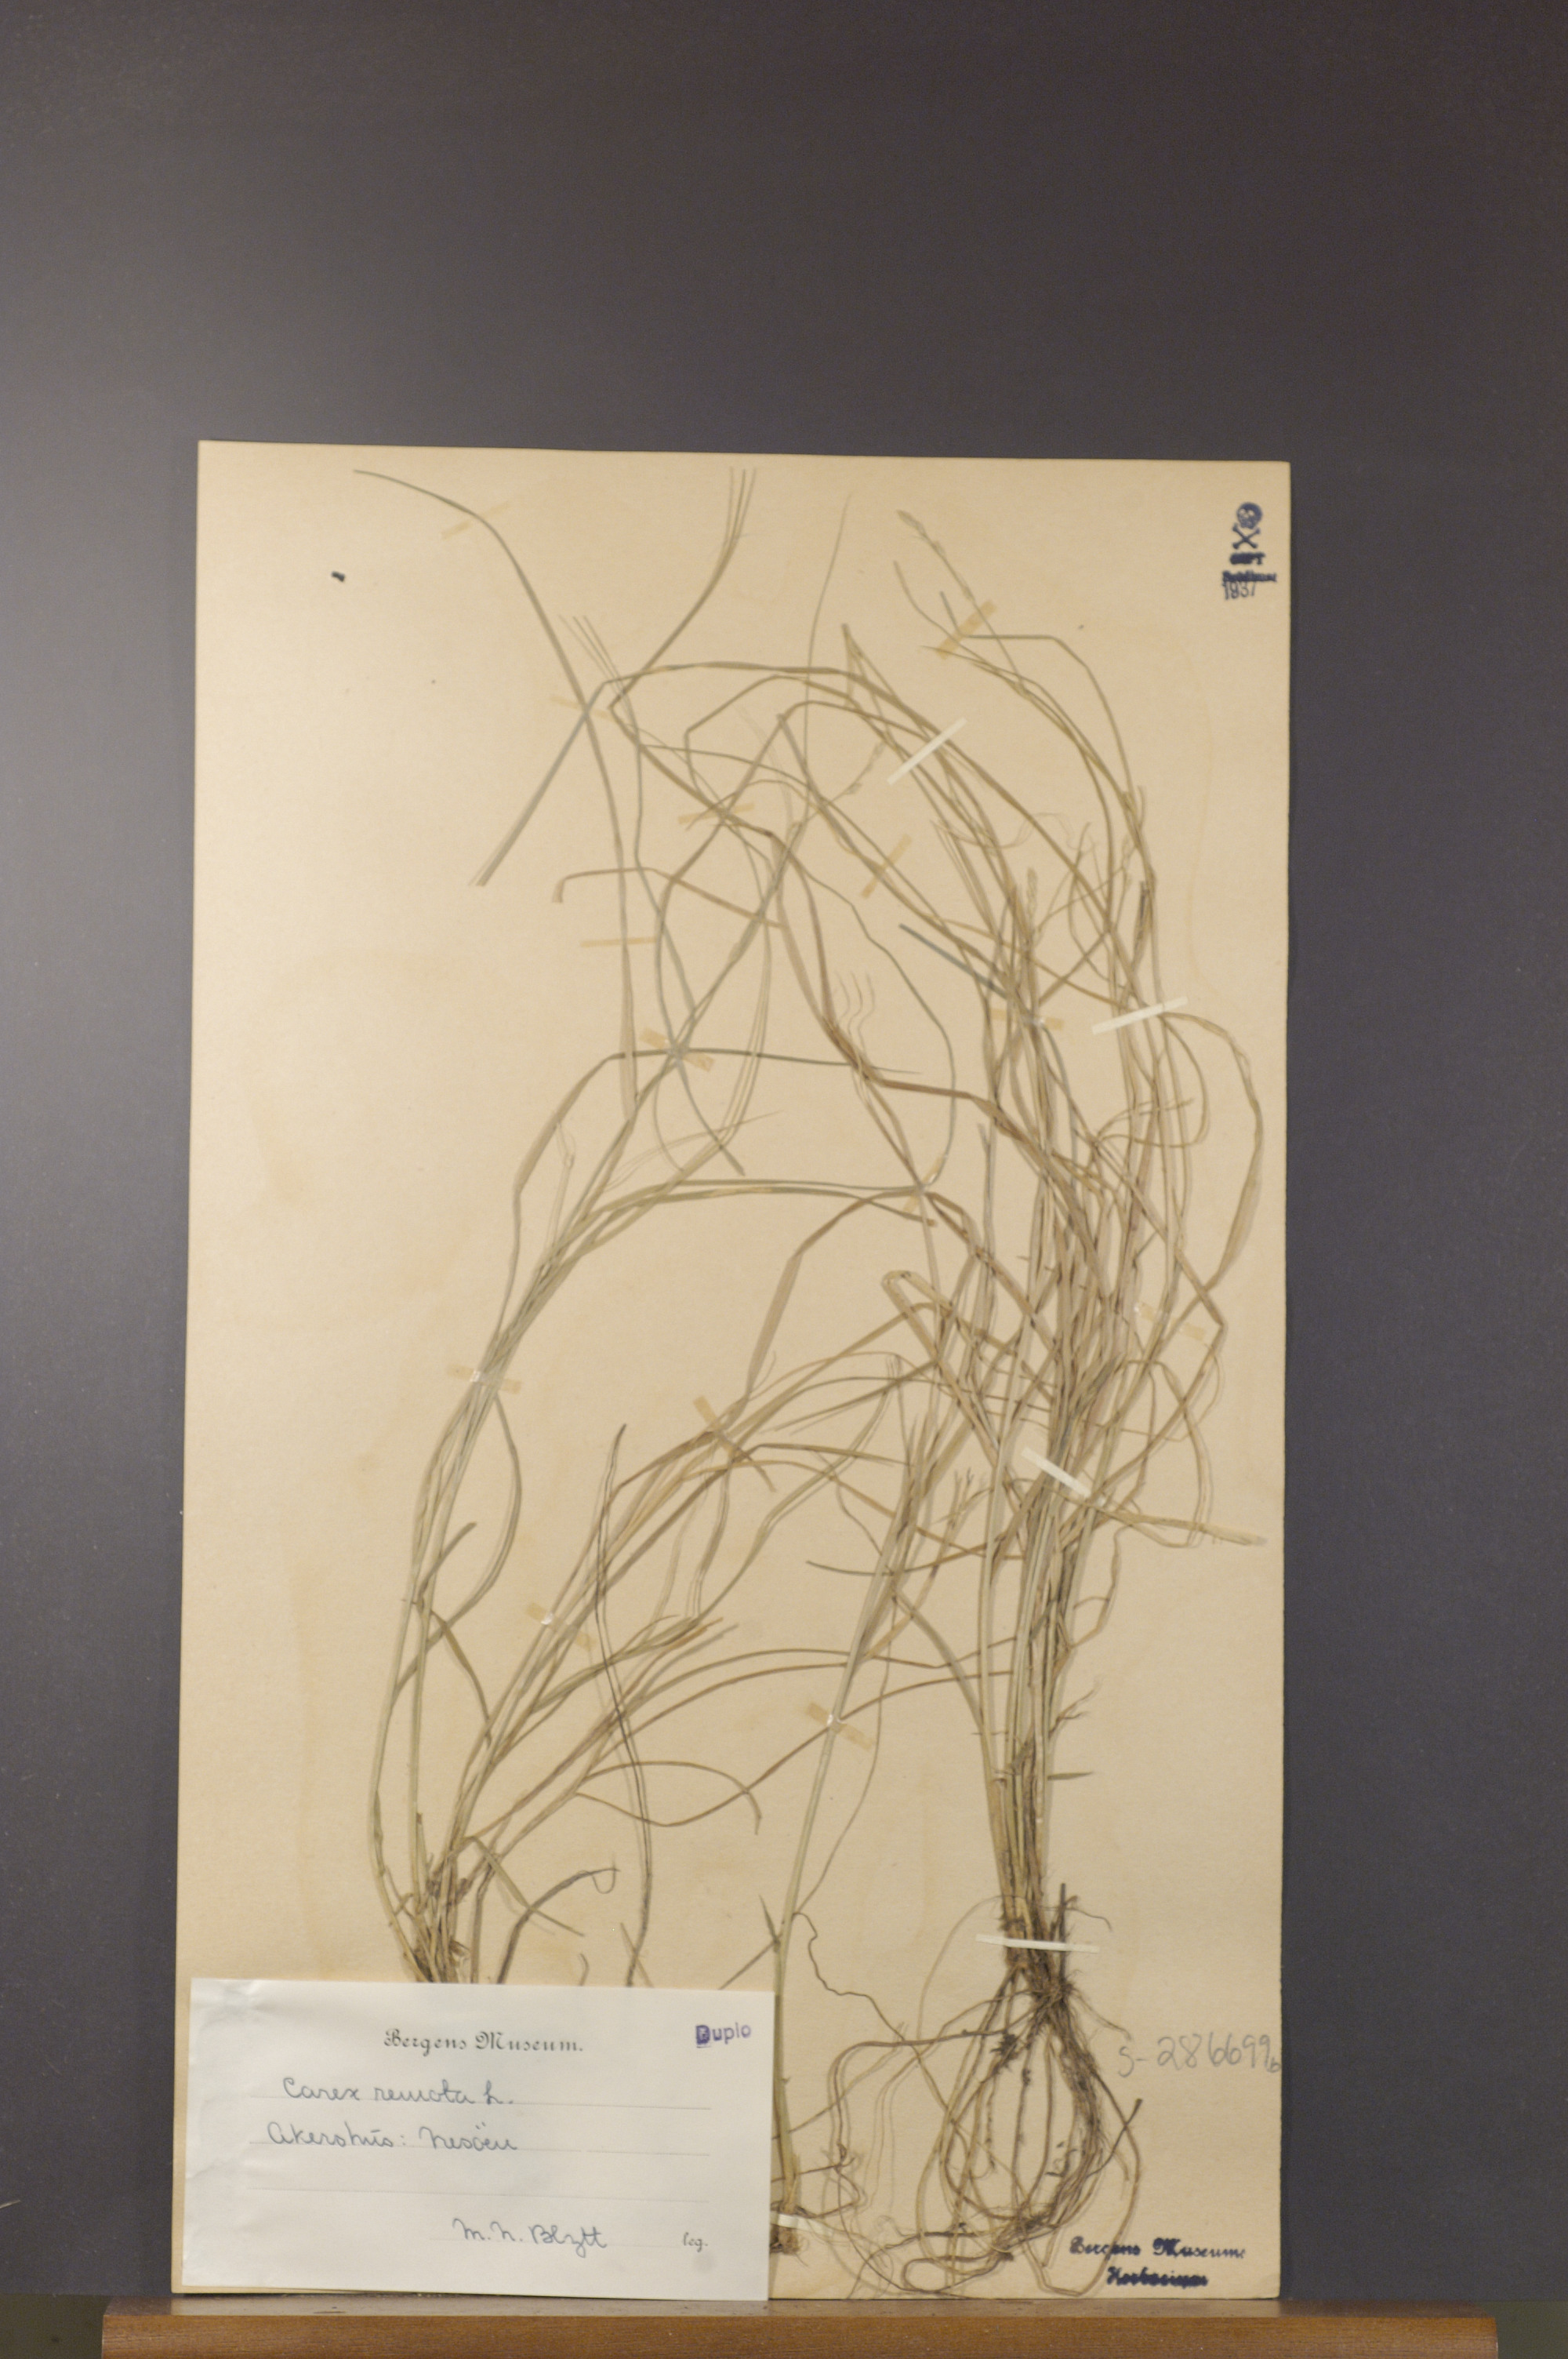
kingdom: Plantae
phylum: Tracheophyta
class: Liliopsida
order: Poales
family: Cyperaceae
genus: Carex
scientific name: Carex remota
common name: Remote sedge
